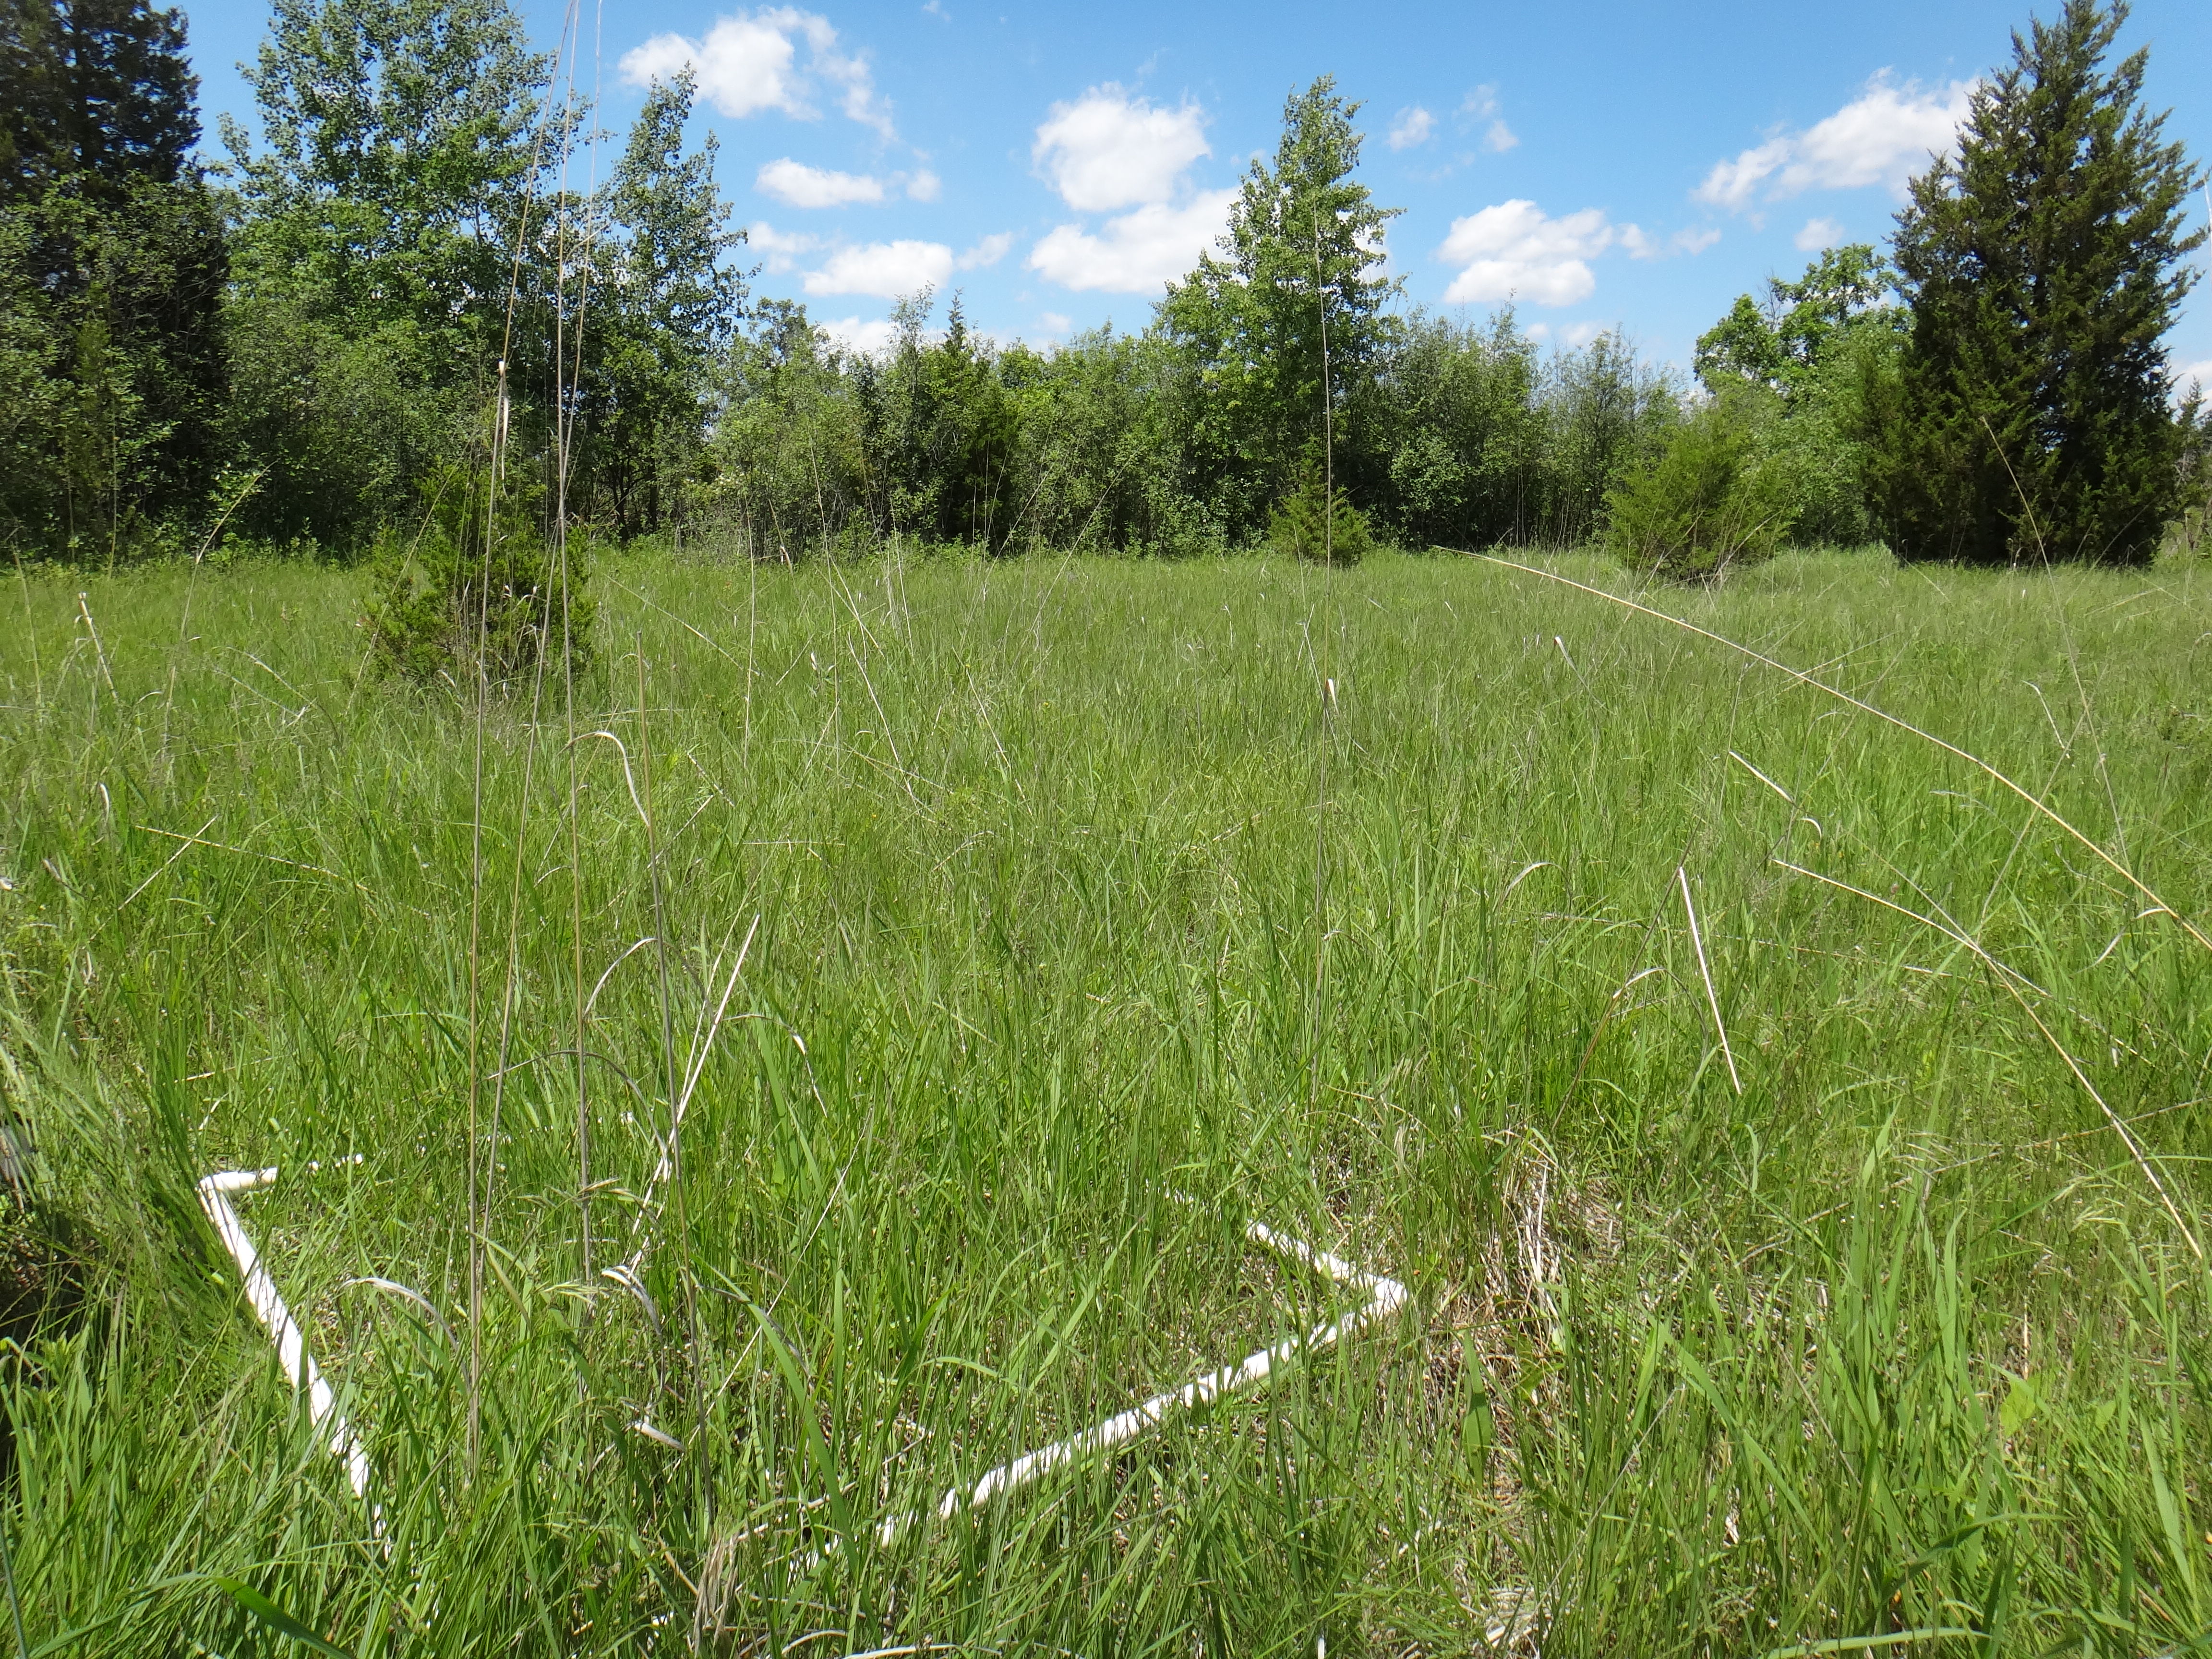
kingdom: Plantae
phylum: Tracheophyta
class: Liliopsida
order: Poales
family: Poaceae
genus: Poa
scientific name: Poa pratensis
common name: Kentucky bluegrass
